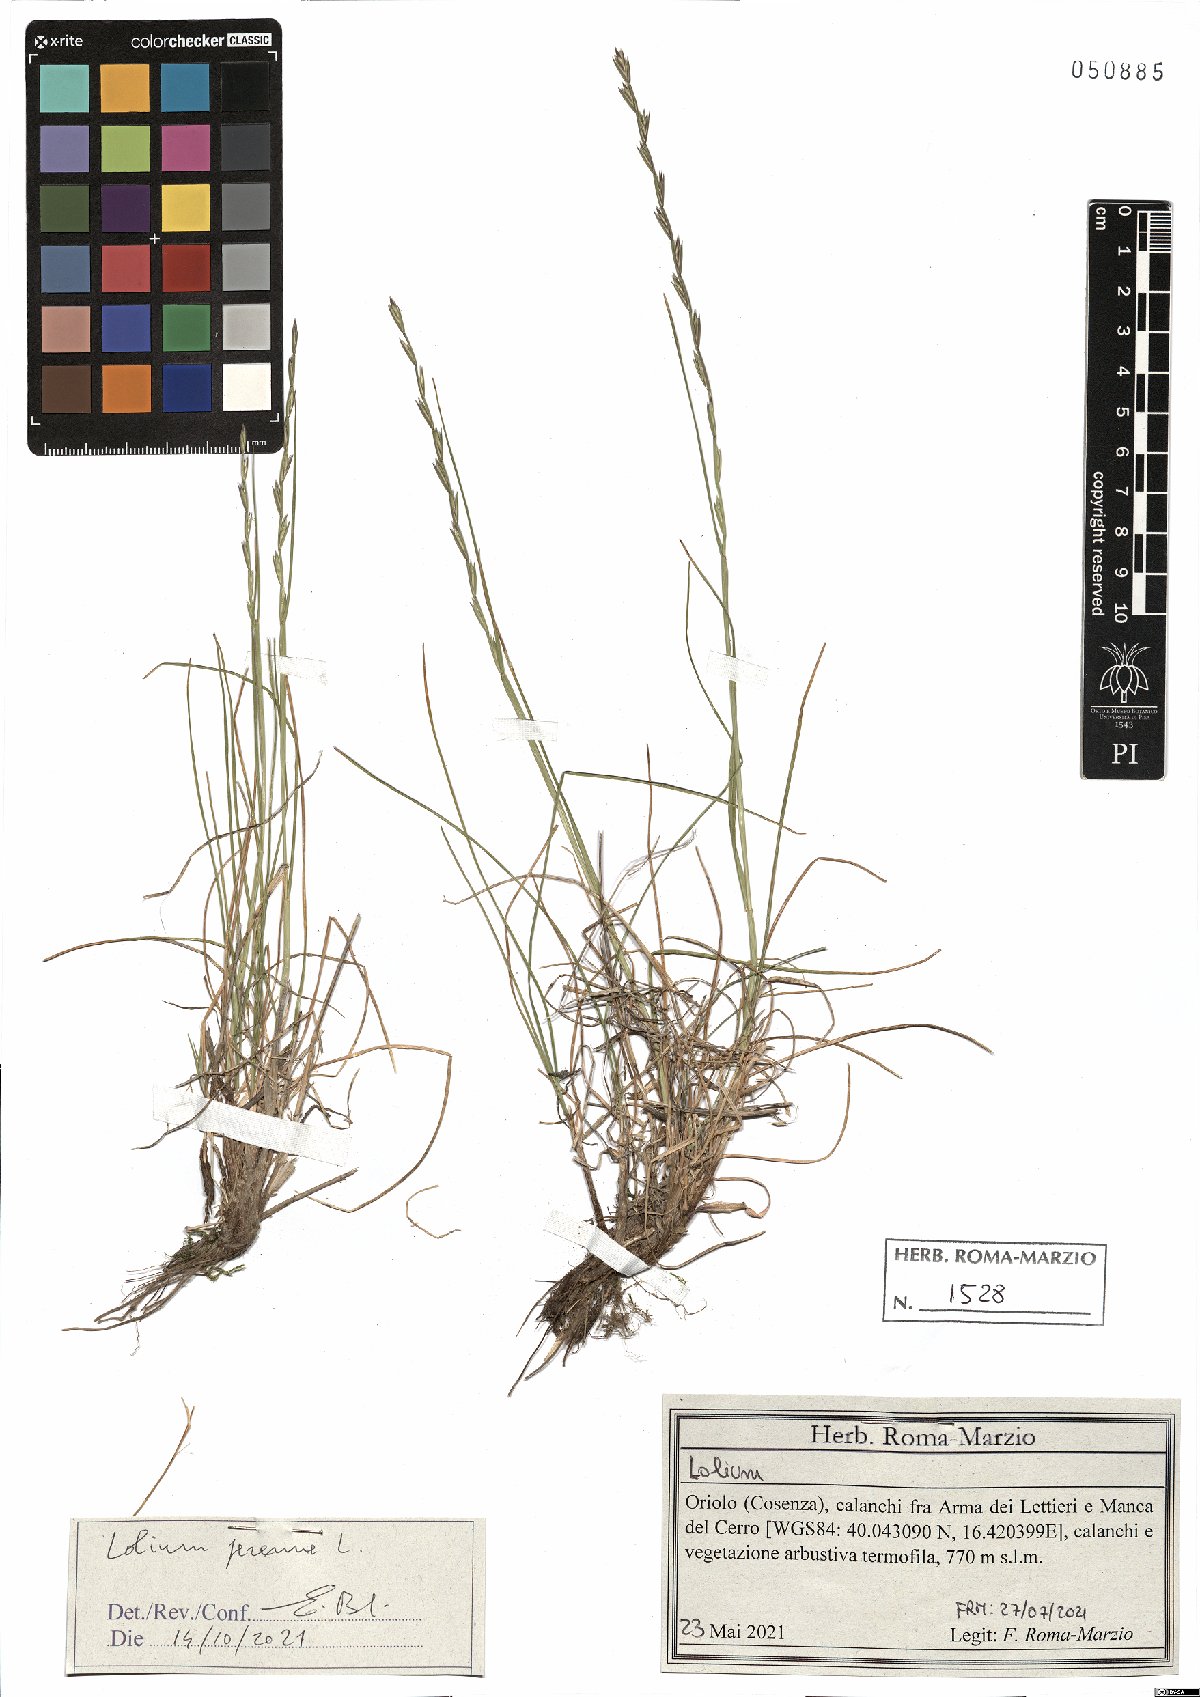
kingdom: Plantae
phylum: Tracheophyta
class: Liliopsida
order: Poales
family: Poaceae
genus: Lolium
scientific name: Lolium perenne
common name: Perennial ryegrass
